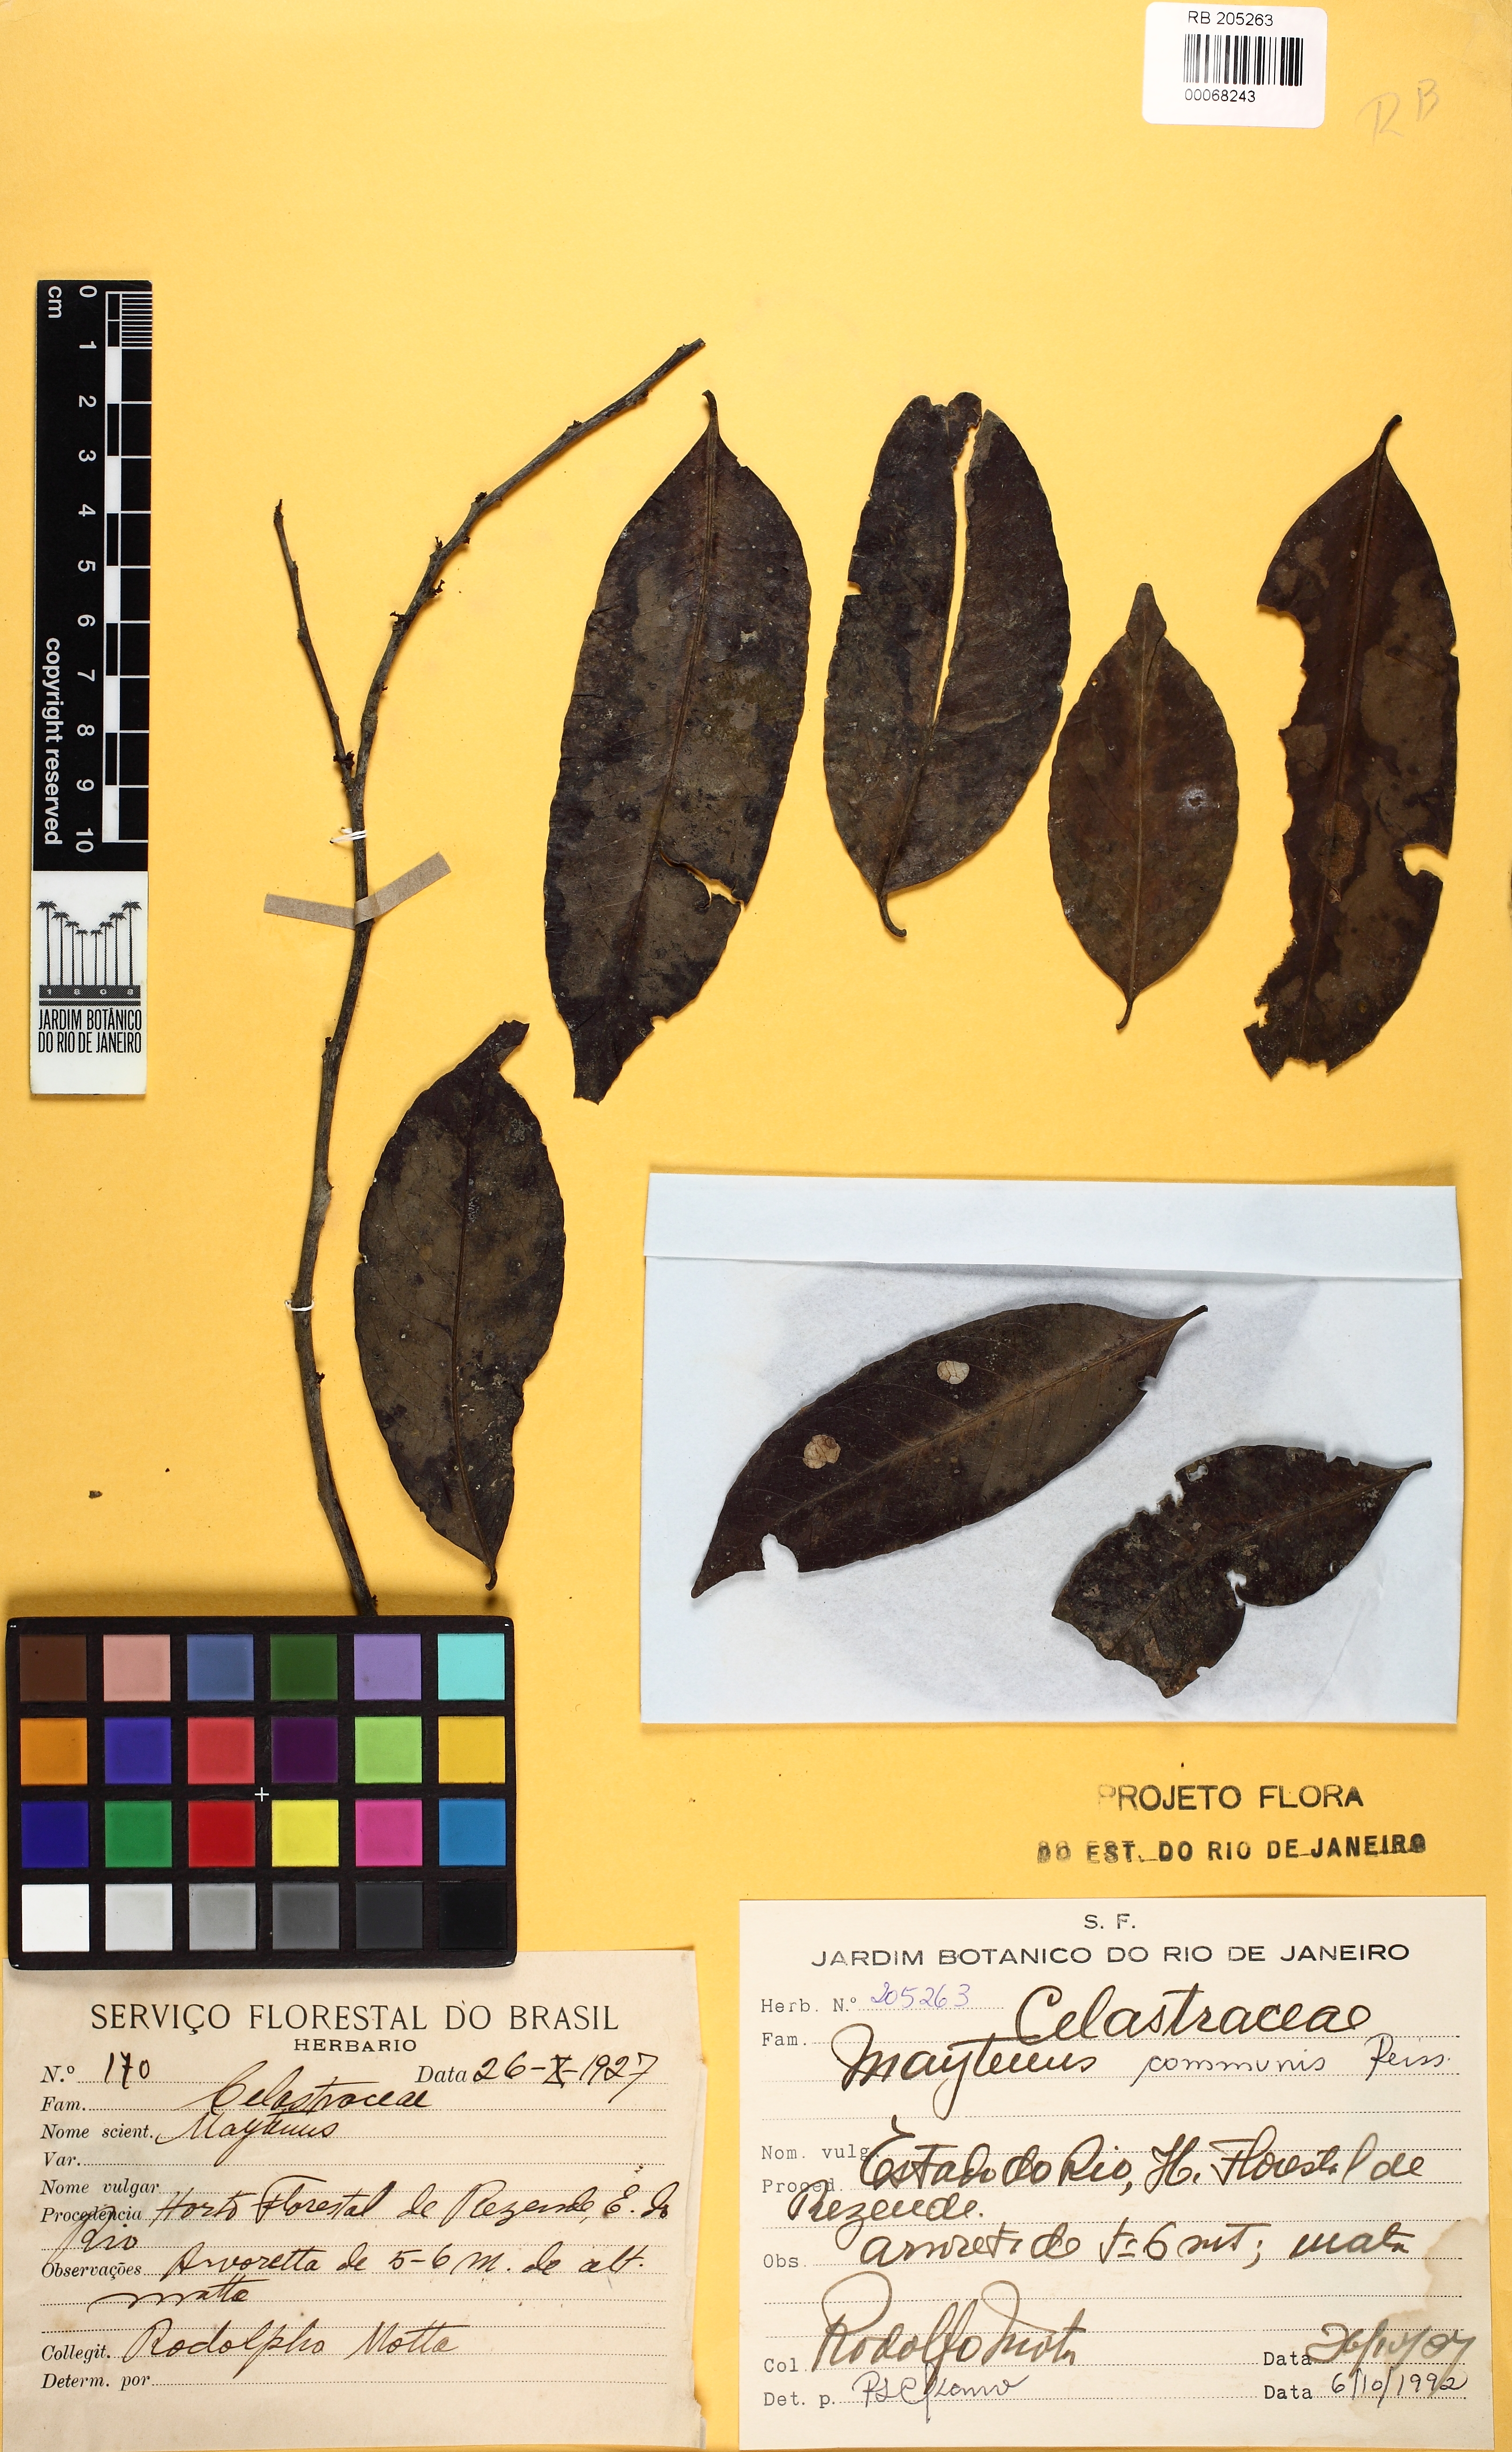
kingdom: Plantae
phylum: Tracheophyta
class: Magnoliopsida
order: Celastrales
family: Celastraceae
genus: Monteverdia
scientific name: Monteverdia communis
